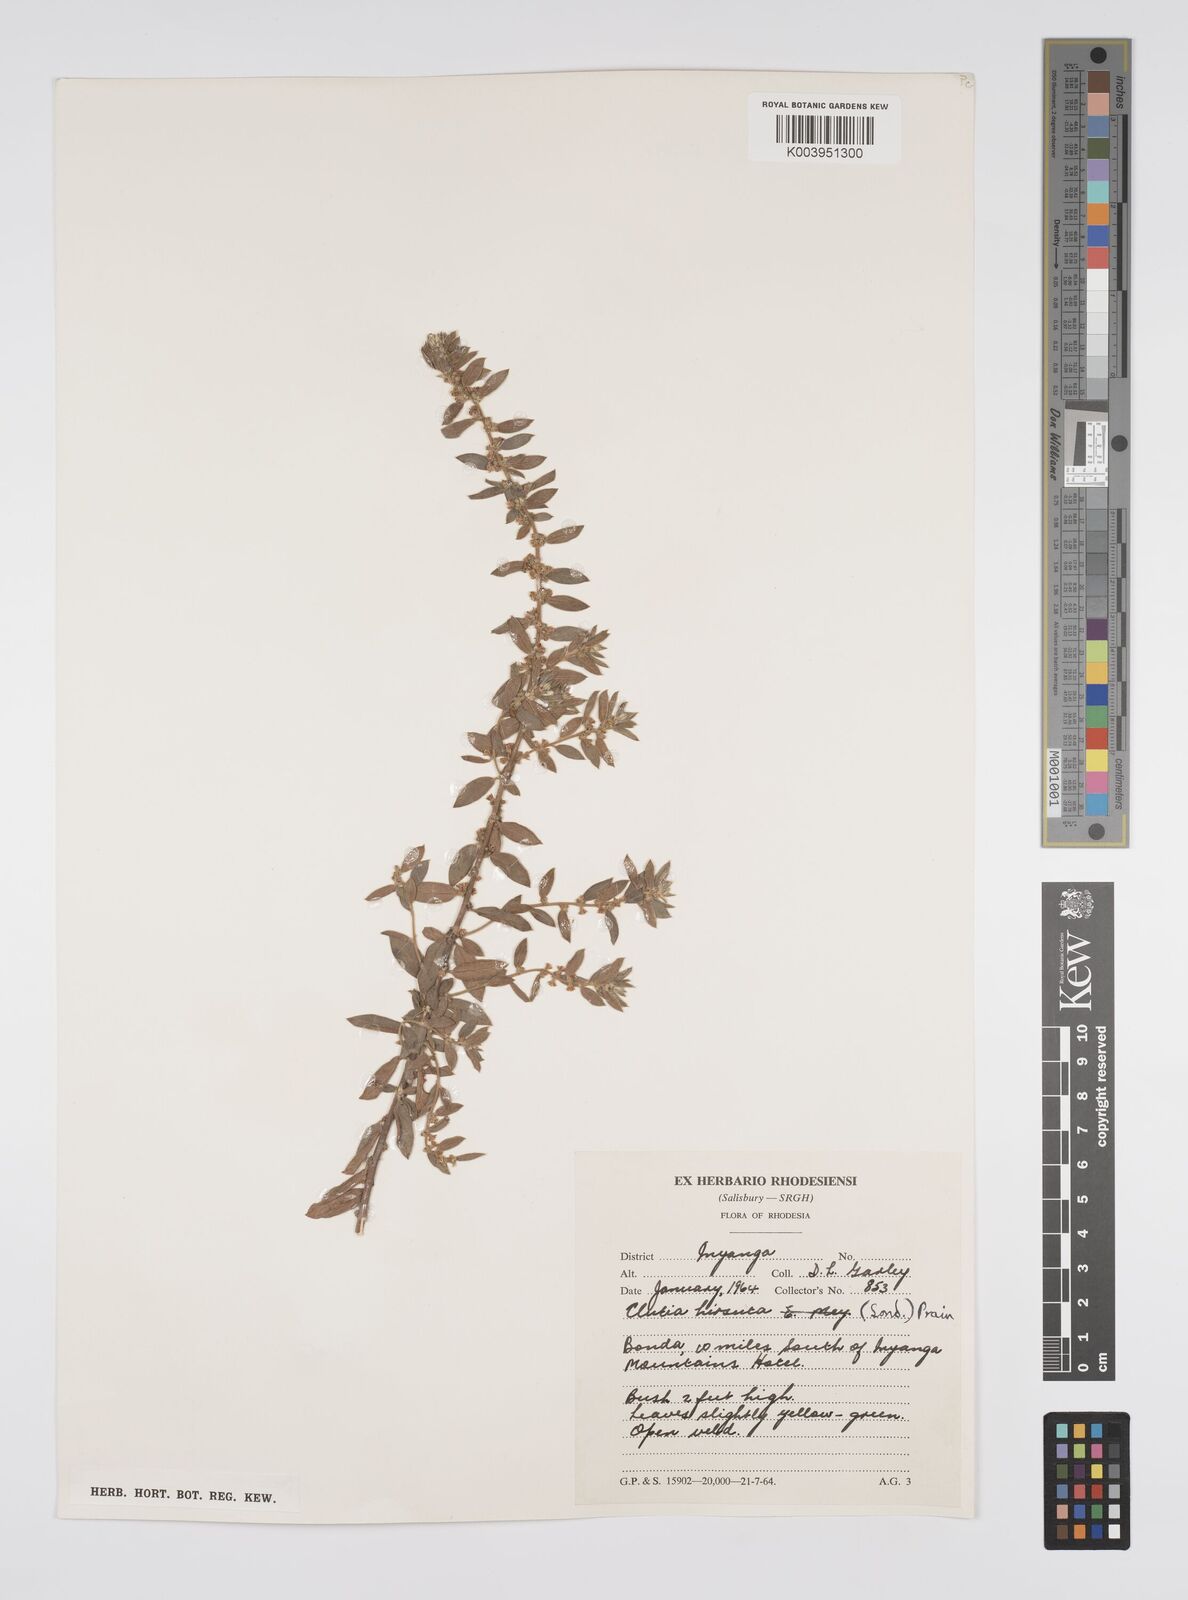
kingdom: Plantae
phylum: Tracheophyta
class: Magnoliopsida
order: Malpighiales
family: Peraceae
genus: Clutia
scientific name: Clutia hirsuta
